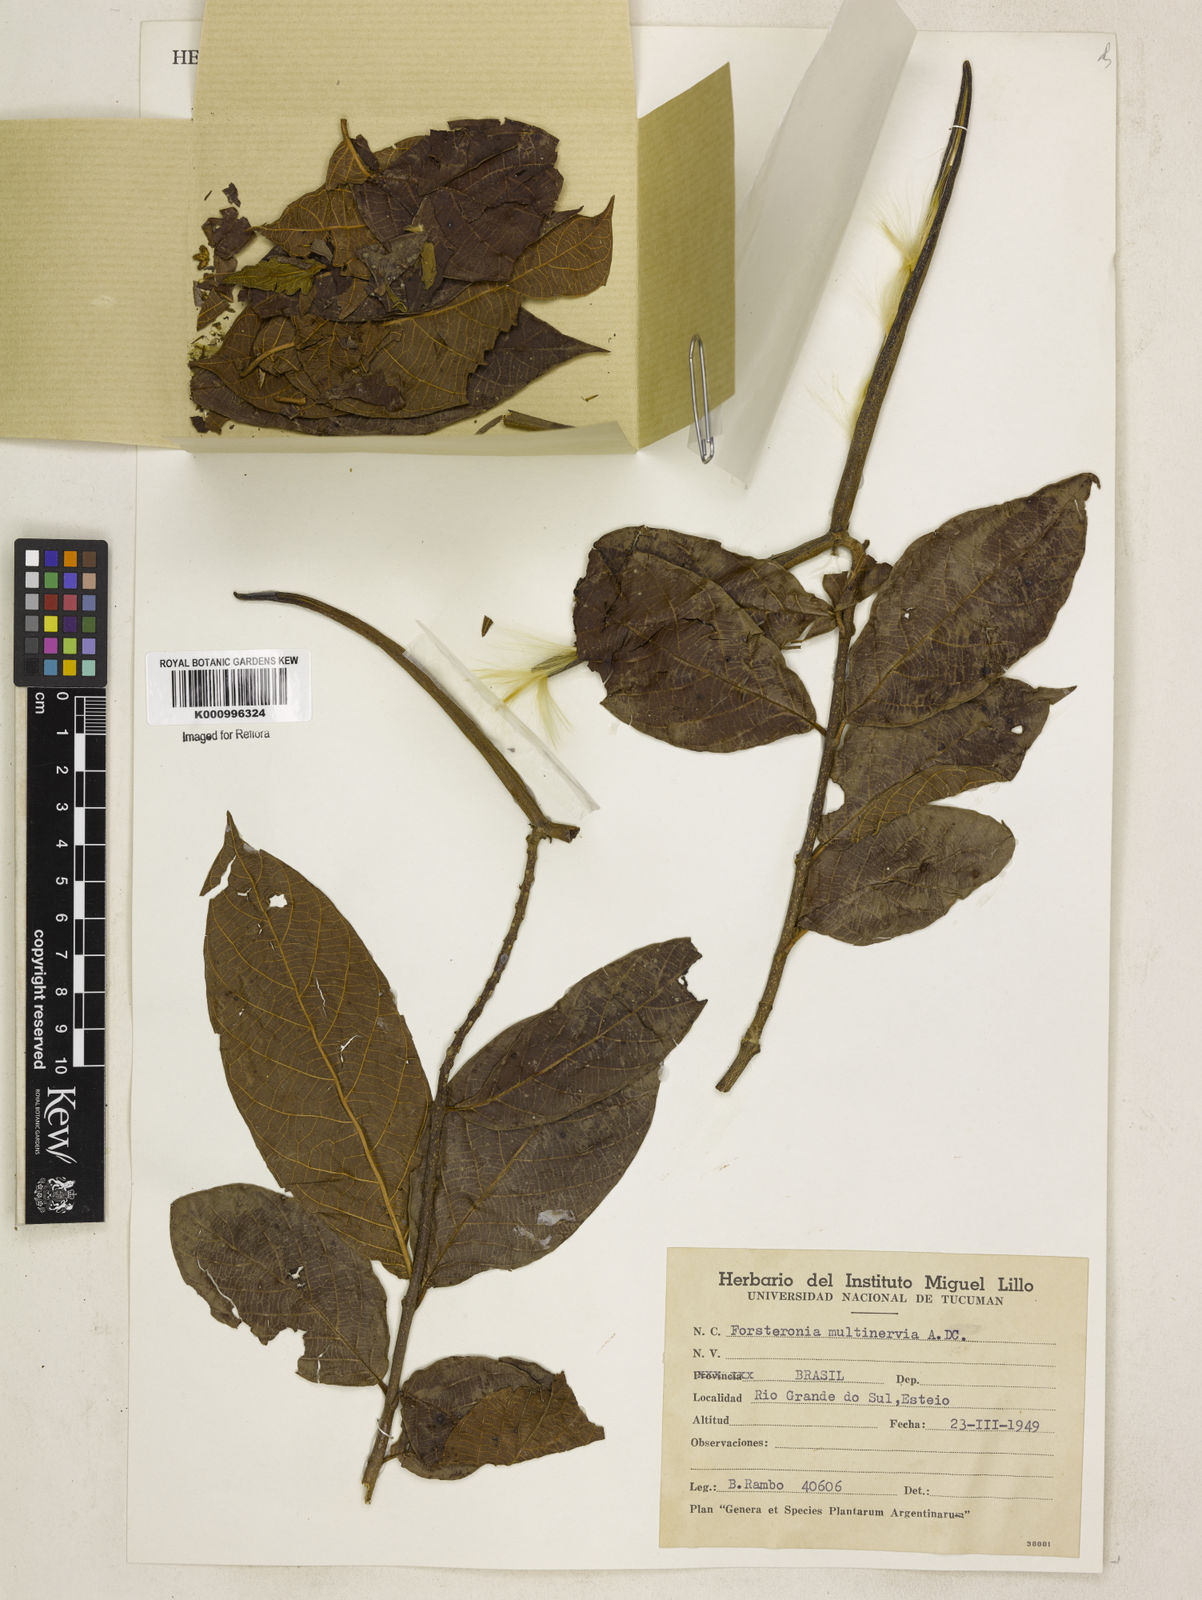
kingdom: Plantae
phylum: Tracheophyta
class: Magnoliopsida
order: Gentianales
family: Apocynaceae
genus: Forsteronia
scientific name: Forsteronia
